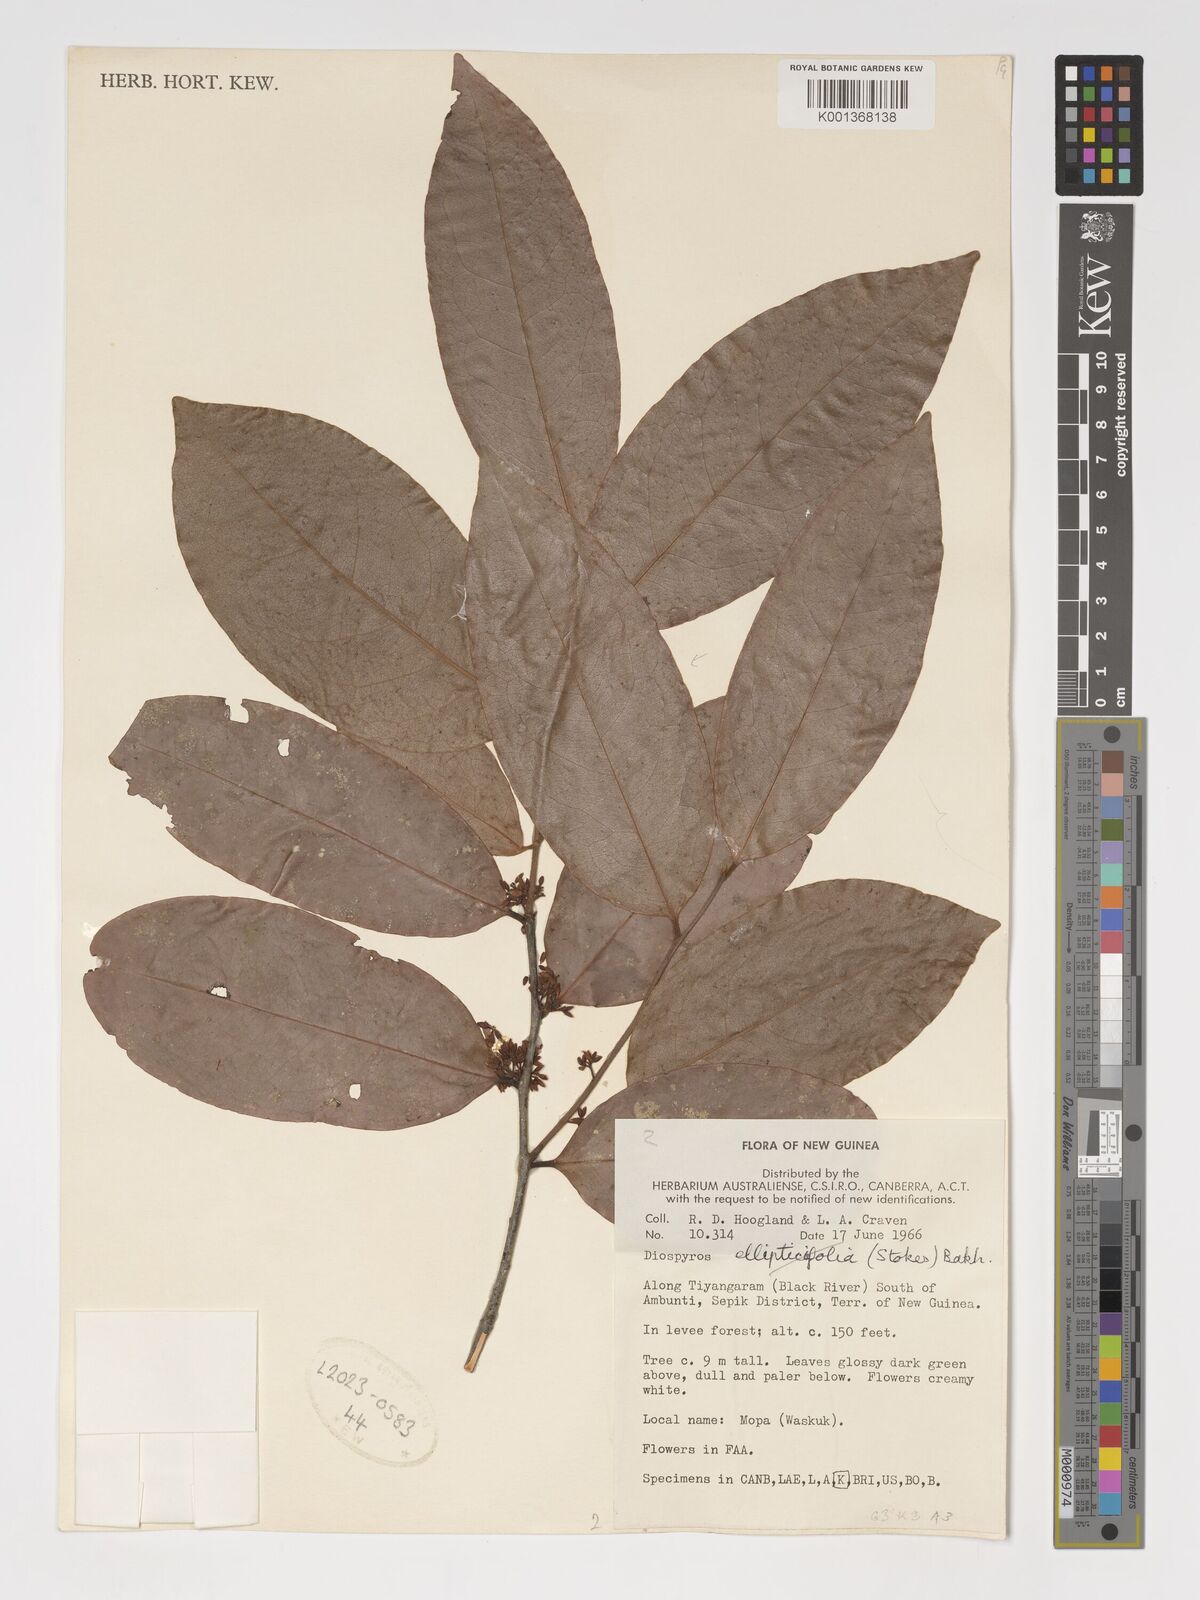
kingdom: Plantae
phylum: Tracheophyta
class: Magnoliopsida
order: Ericales
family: Ebenaceae
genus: Diospyros
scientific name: Diospyros
